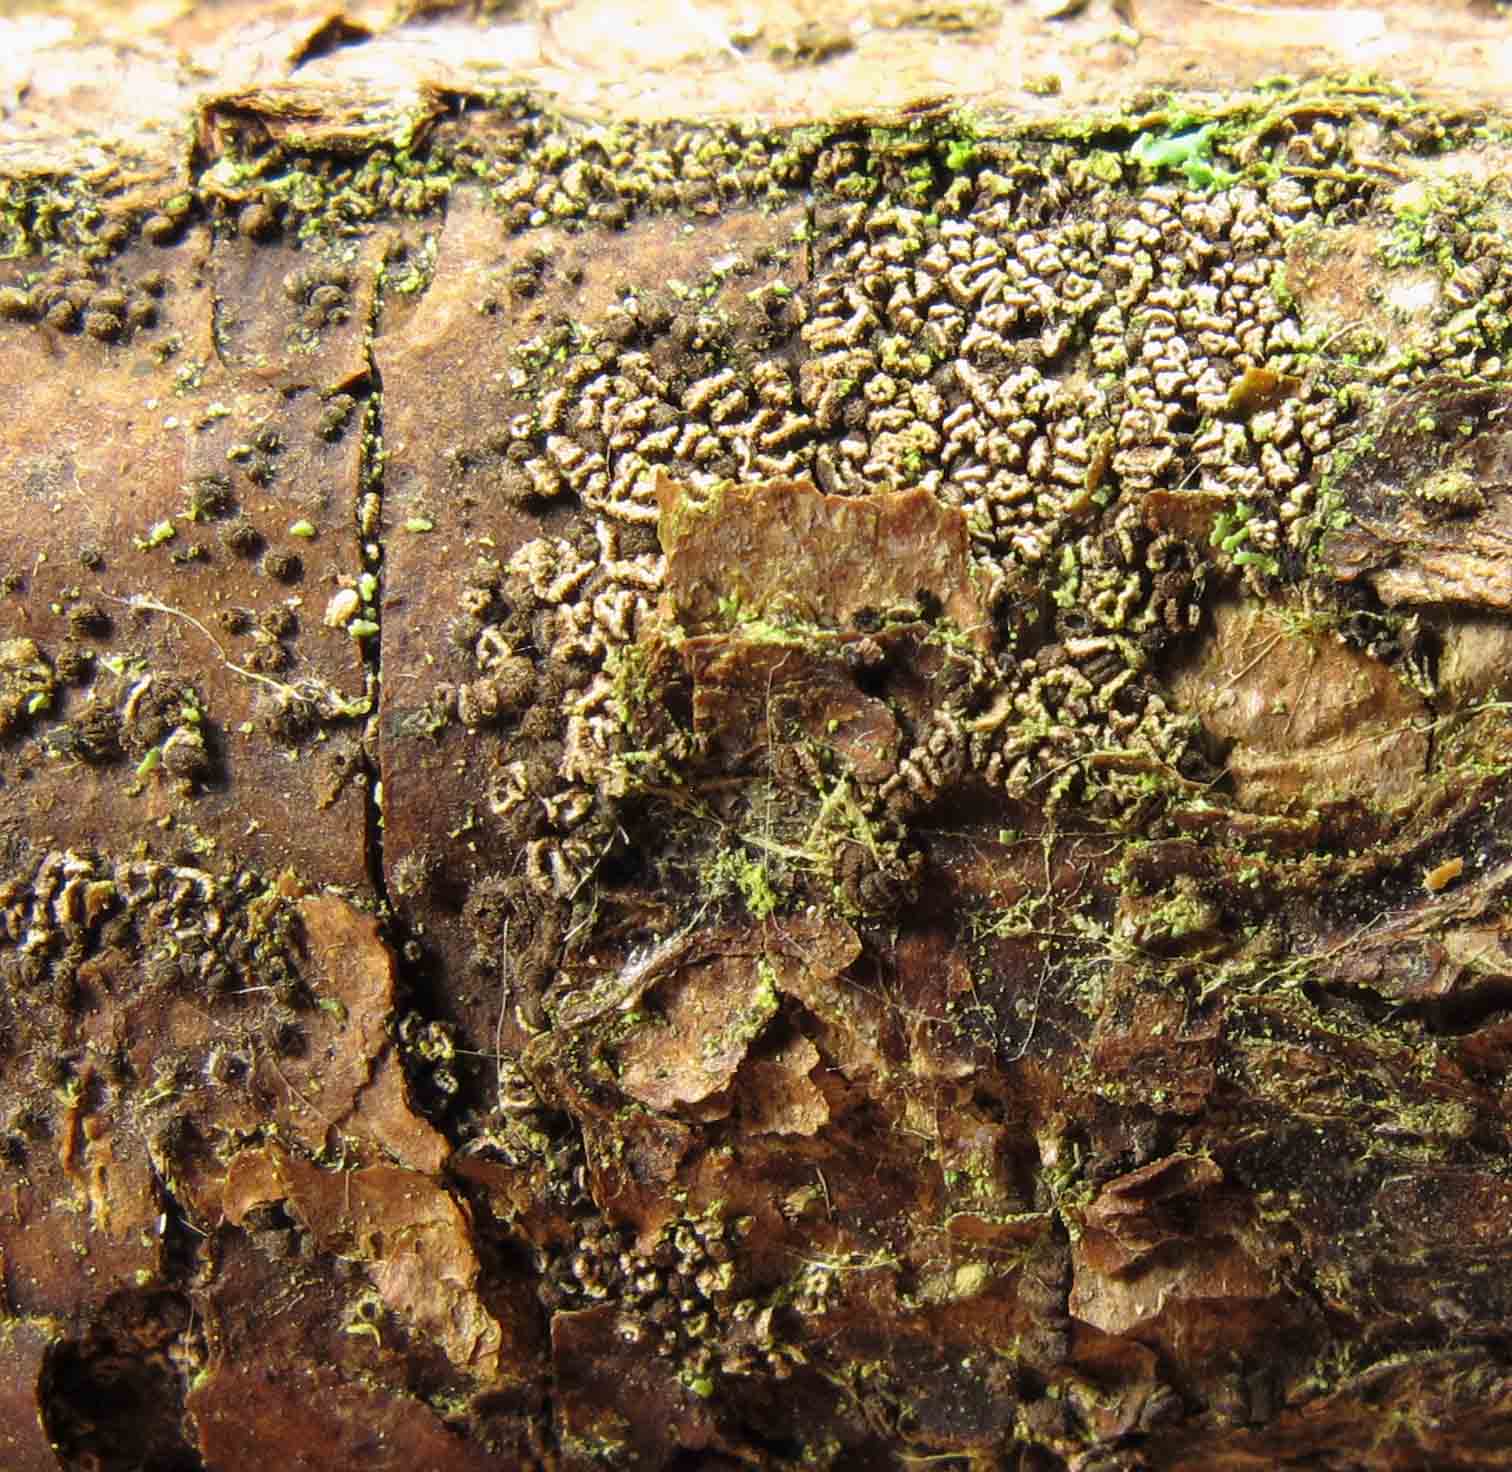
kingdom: Fungi
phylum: Ascomycota
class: Leotiomycetes
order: Helotiales
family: Mollisiaceae
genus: Mollisia
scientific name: Mollisia rosae
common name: rose-gråskive
